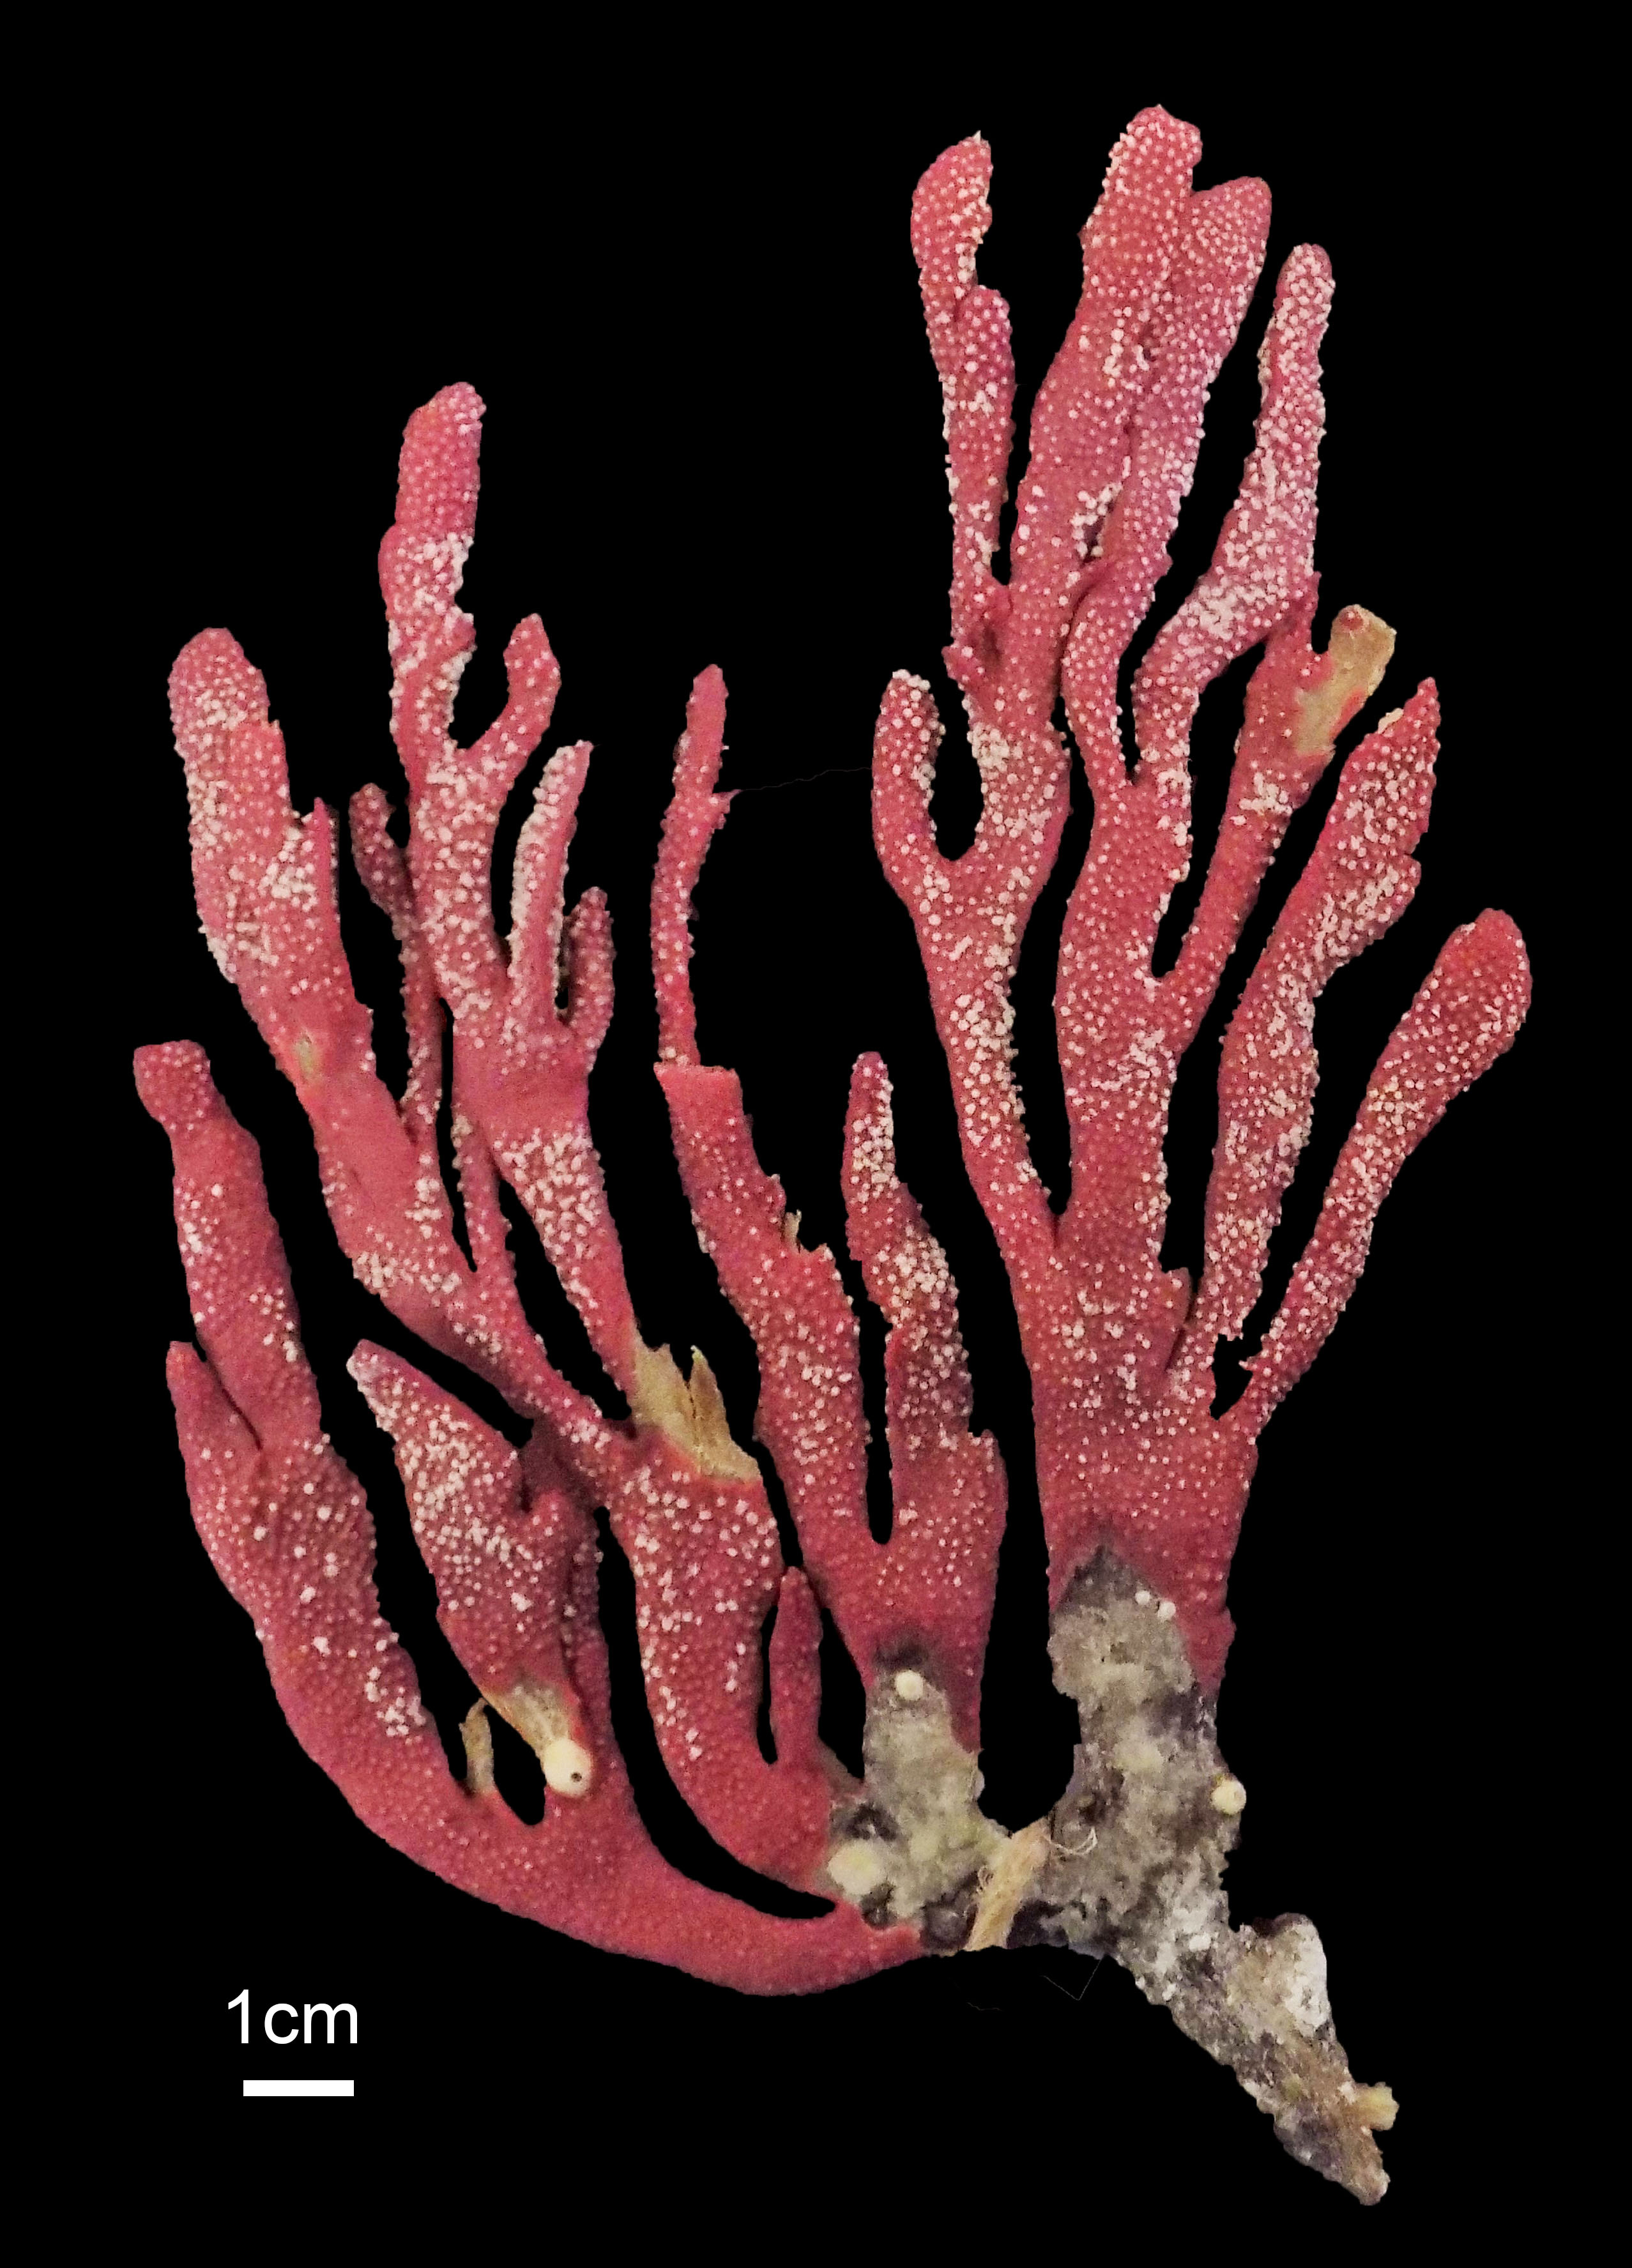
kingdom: Animalia
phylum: Cnidaria
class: Anthozoa
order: Malacalcyonacea
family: Gorgoniidae
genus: Leptogorgia
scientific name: Leptogorgia
